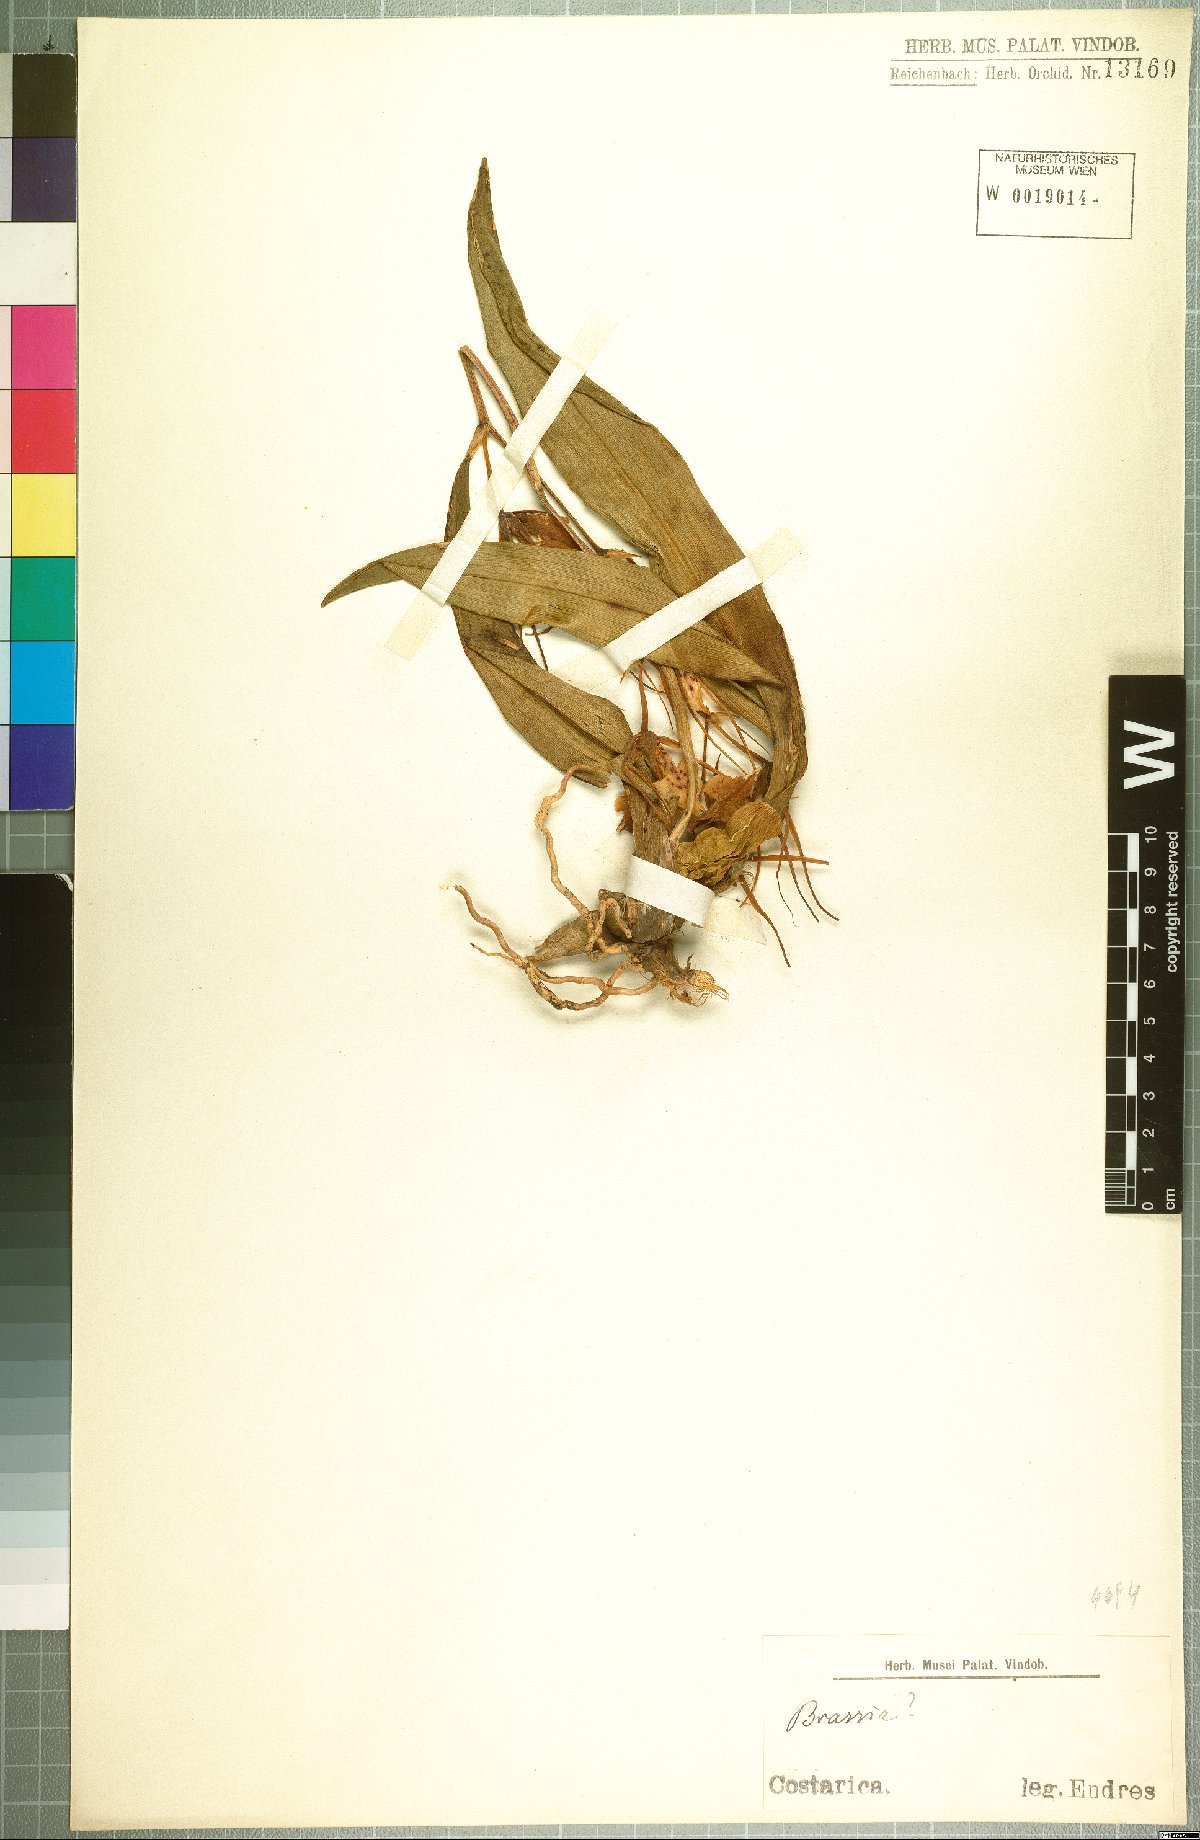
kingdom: Plantae
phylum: Tracheophyta
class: Liliopsida
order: Asparagales
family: Orchidaceae
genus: Brassia
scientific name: Brassia
